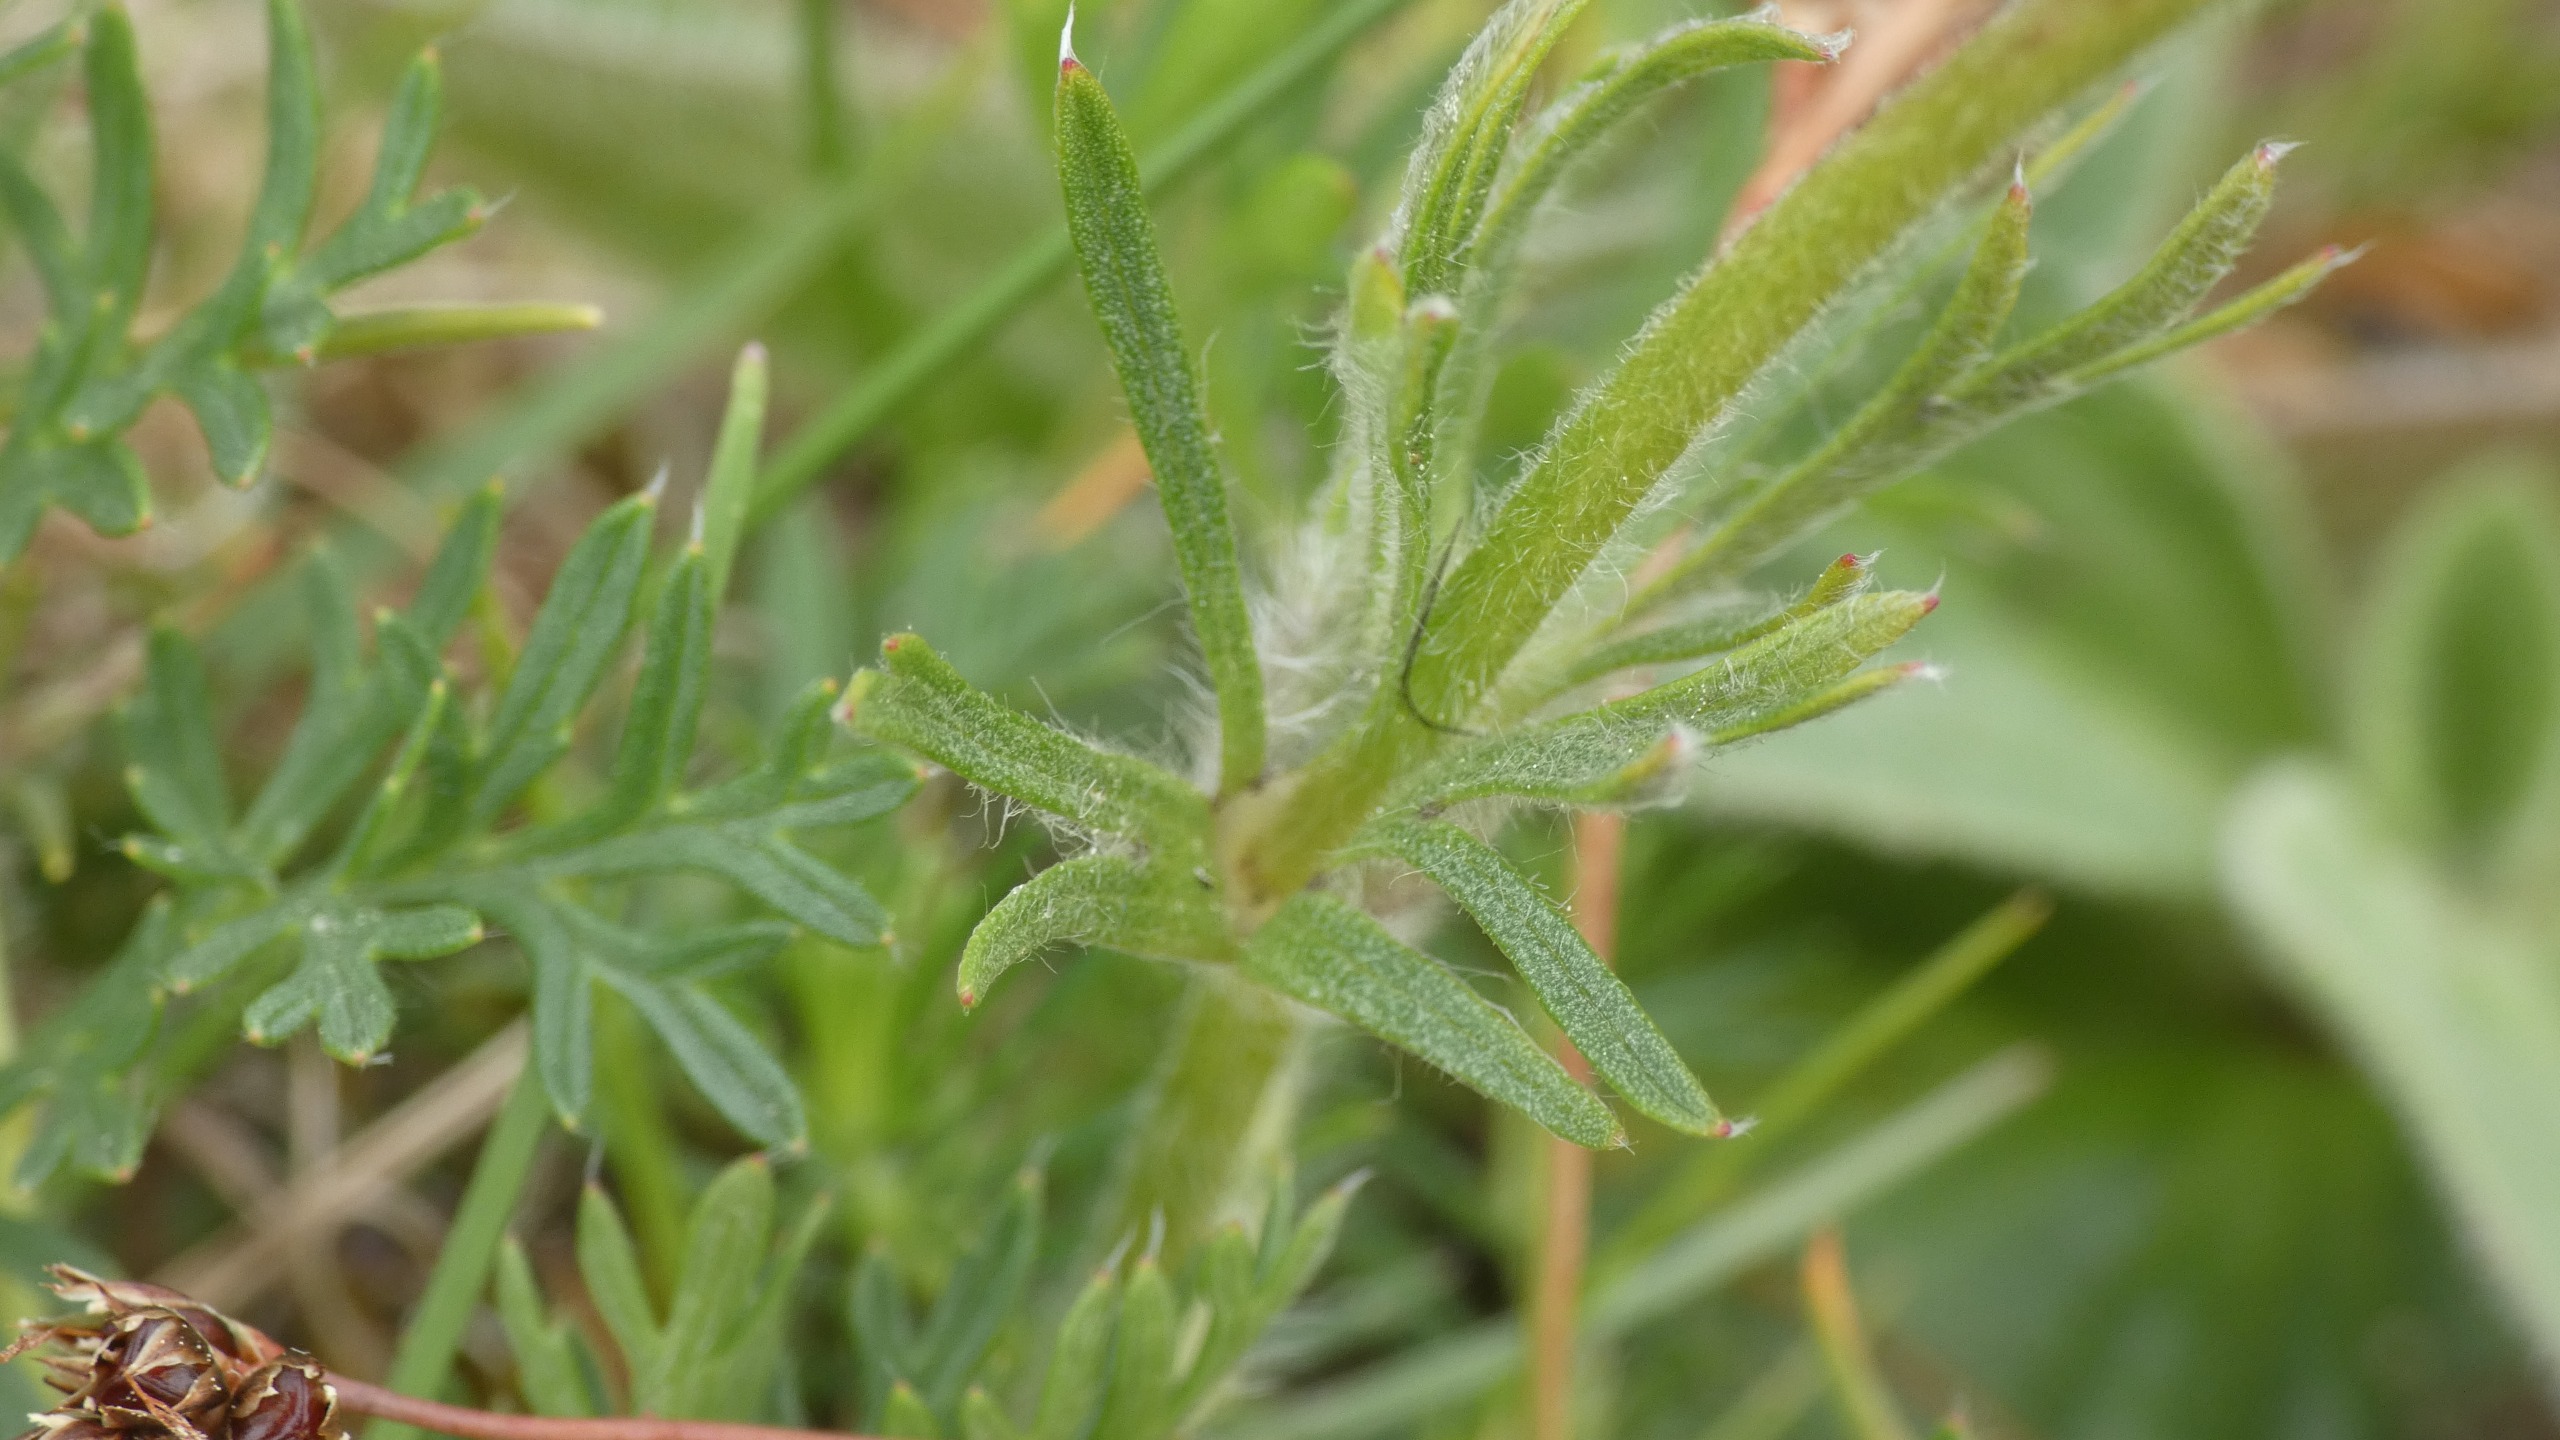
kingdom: Plantae
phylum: Tracheophyta
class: Magnoliopsida
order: Ranunculales
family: Ranunculaceae
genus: Pulsatilla
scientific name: Pulsatilla pratensis
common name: Nikkende kobjælde
